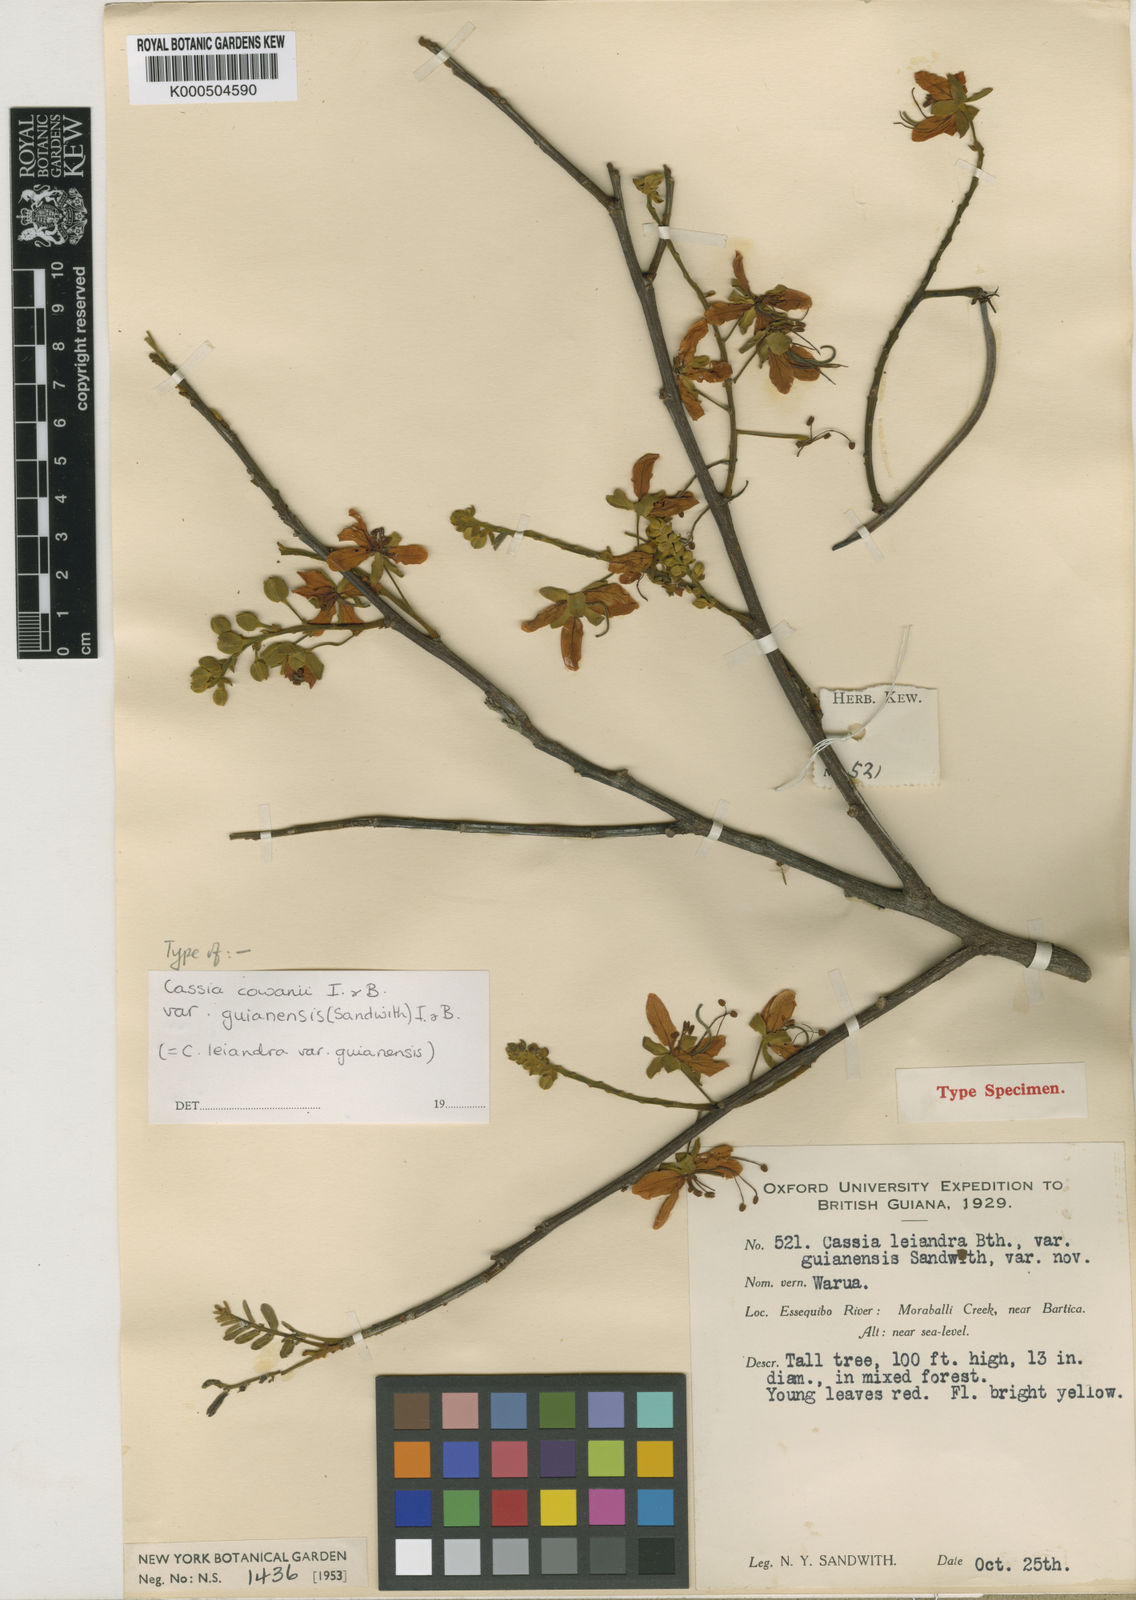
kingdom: Plantae
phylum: Tracheophyta
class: Magnoliopsida
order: Fabales
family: Fabaceae
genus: Cassia
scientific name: Cassia cowanii
